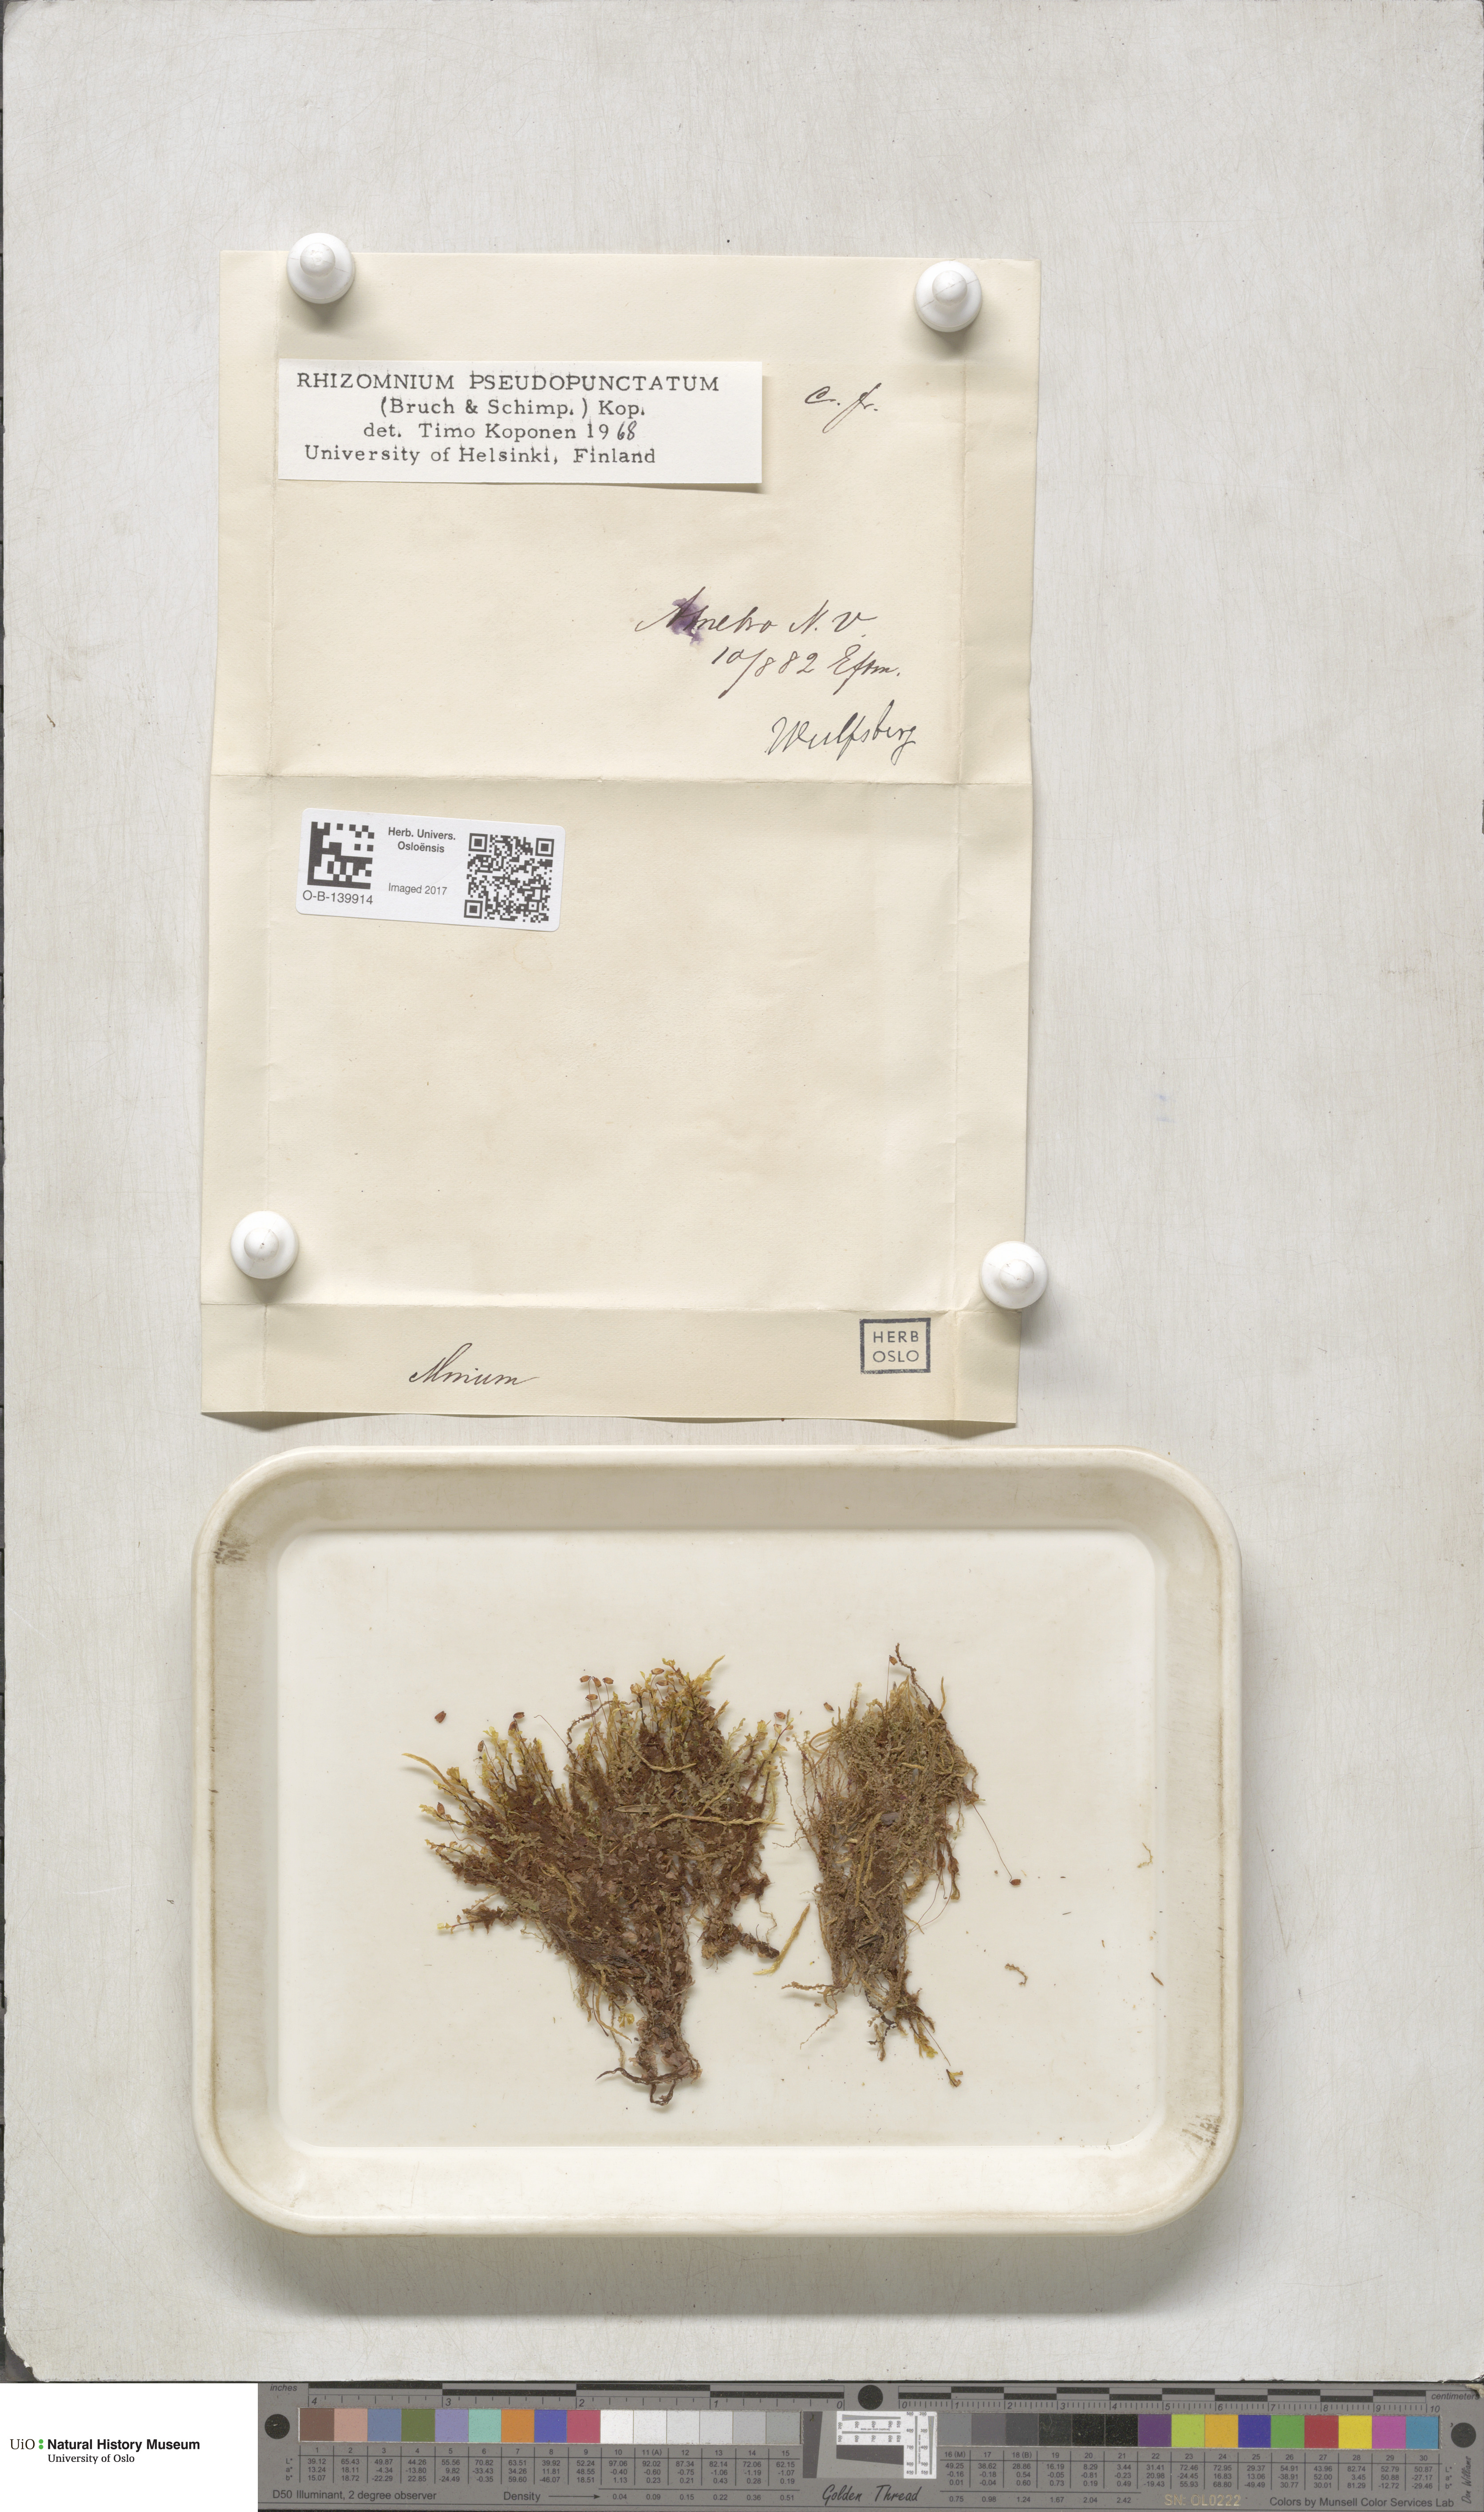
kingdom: Plantae
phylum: Bryophyta
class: Bryopsida
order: Bryales
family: Mniaceae
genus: Rhizomnium
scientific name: Rhizomnium pseudopunctatum
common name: Felted leafy moss
